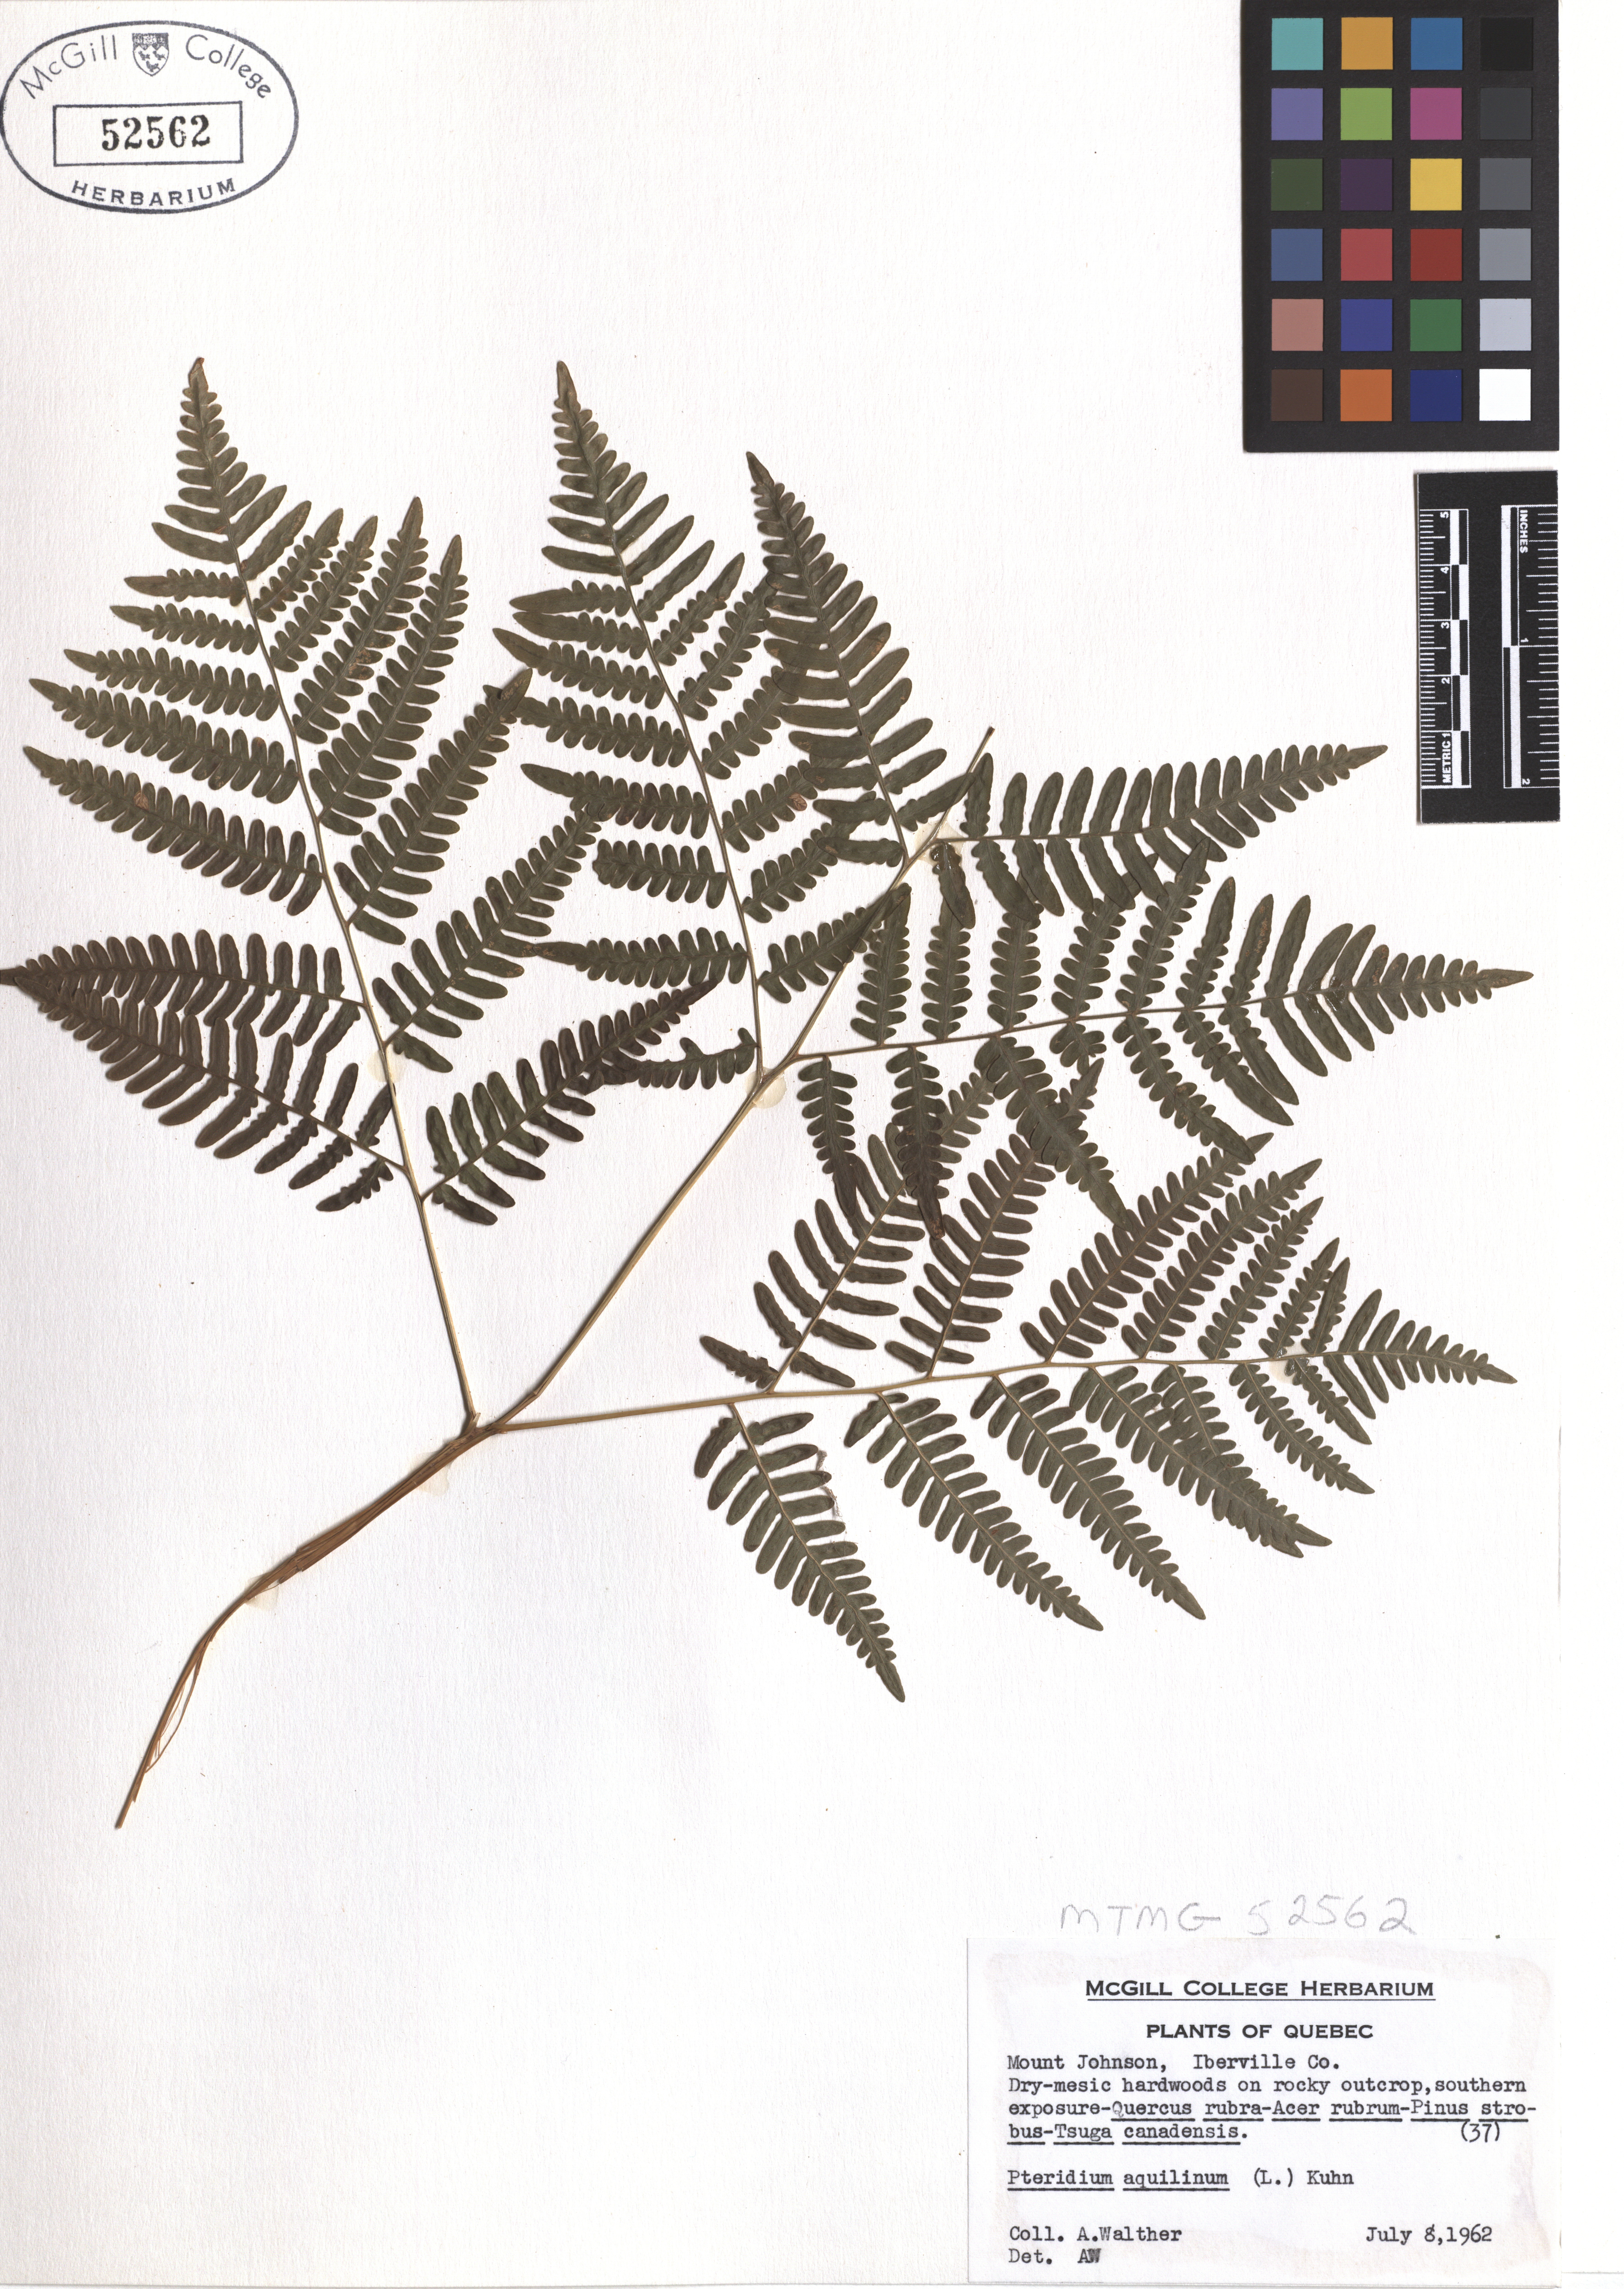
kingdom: Plantae
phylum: Tracheophyta
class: Polypodiopsida
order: Polypodiales
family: Dennstaedtiaceae
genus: Pteridium
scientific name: Pteridium aquilinum
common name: Bracken
